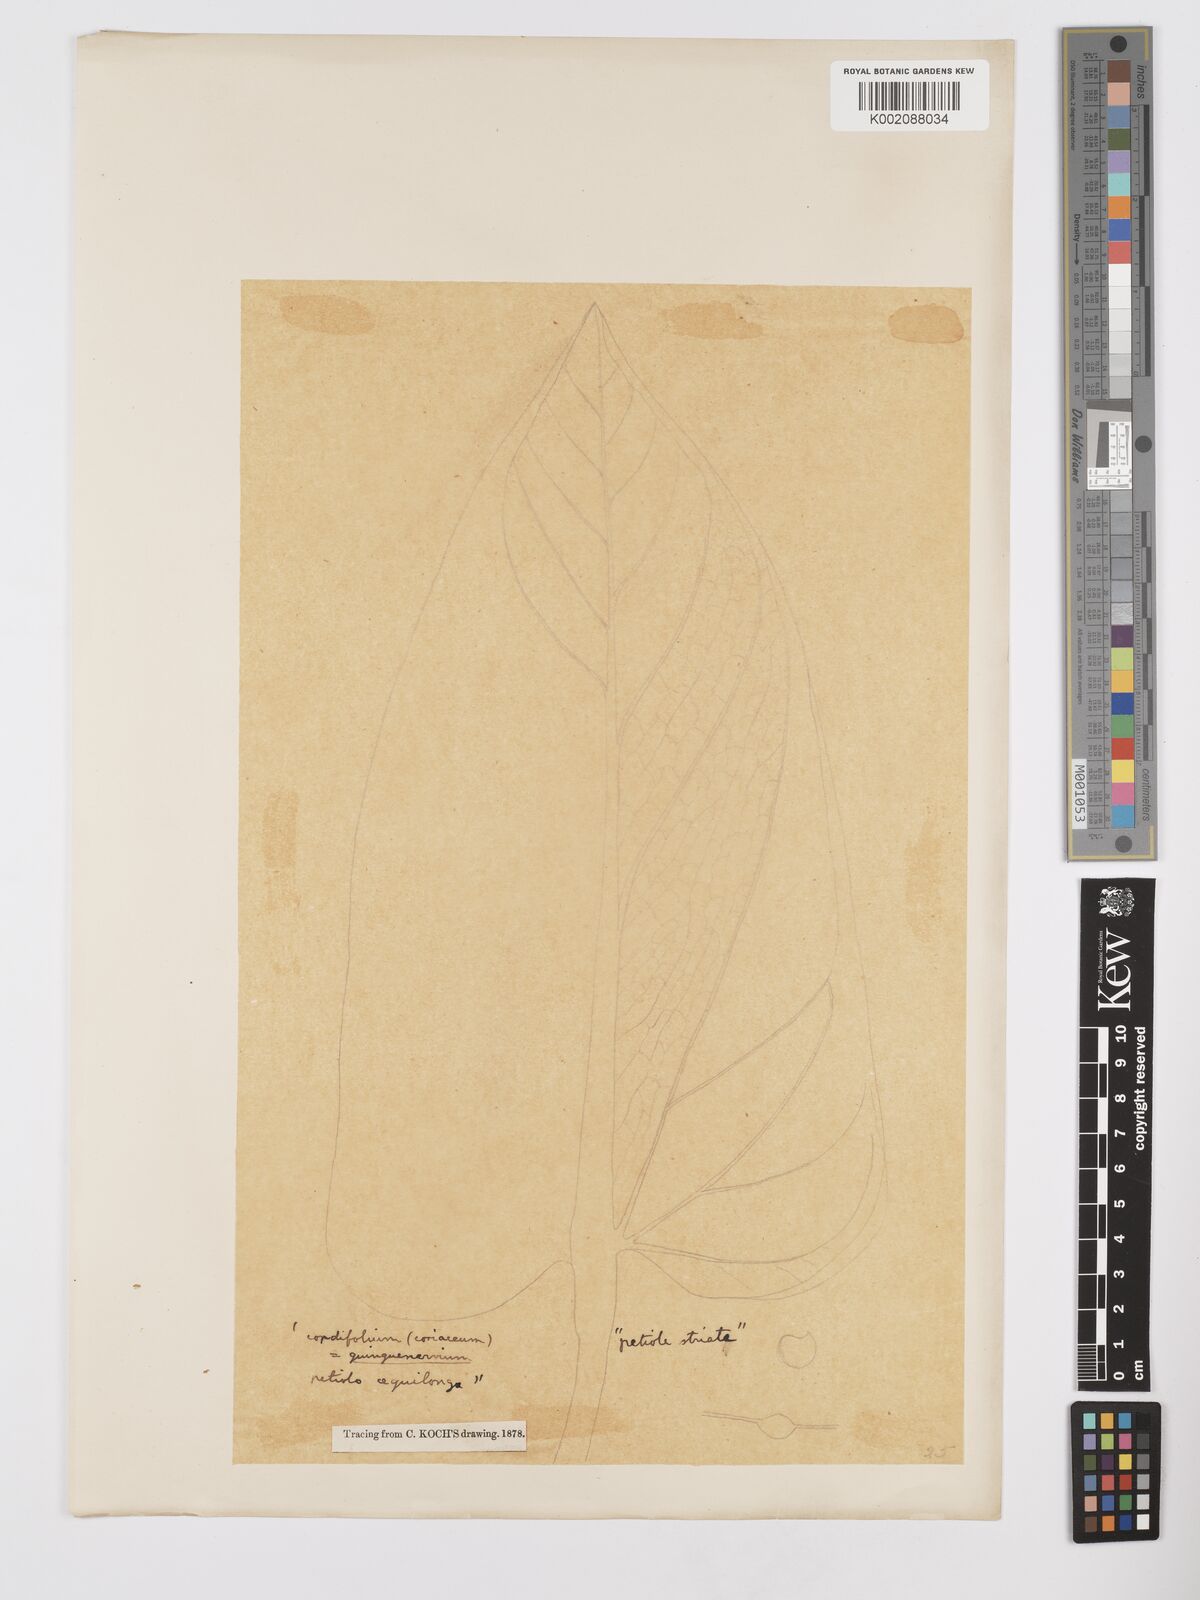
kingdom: Plantae
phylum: Tracheophyta
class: Liliopsida
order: Alismatales
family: Araceae
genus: Anthurium
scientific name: Anthurium
